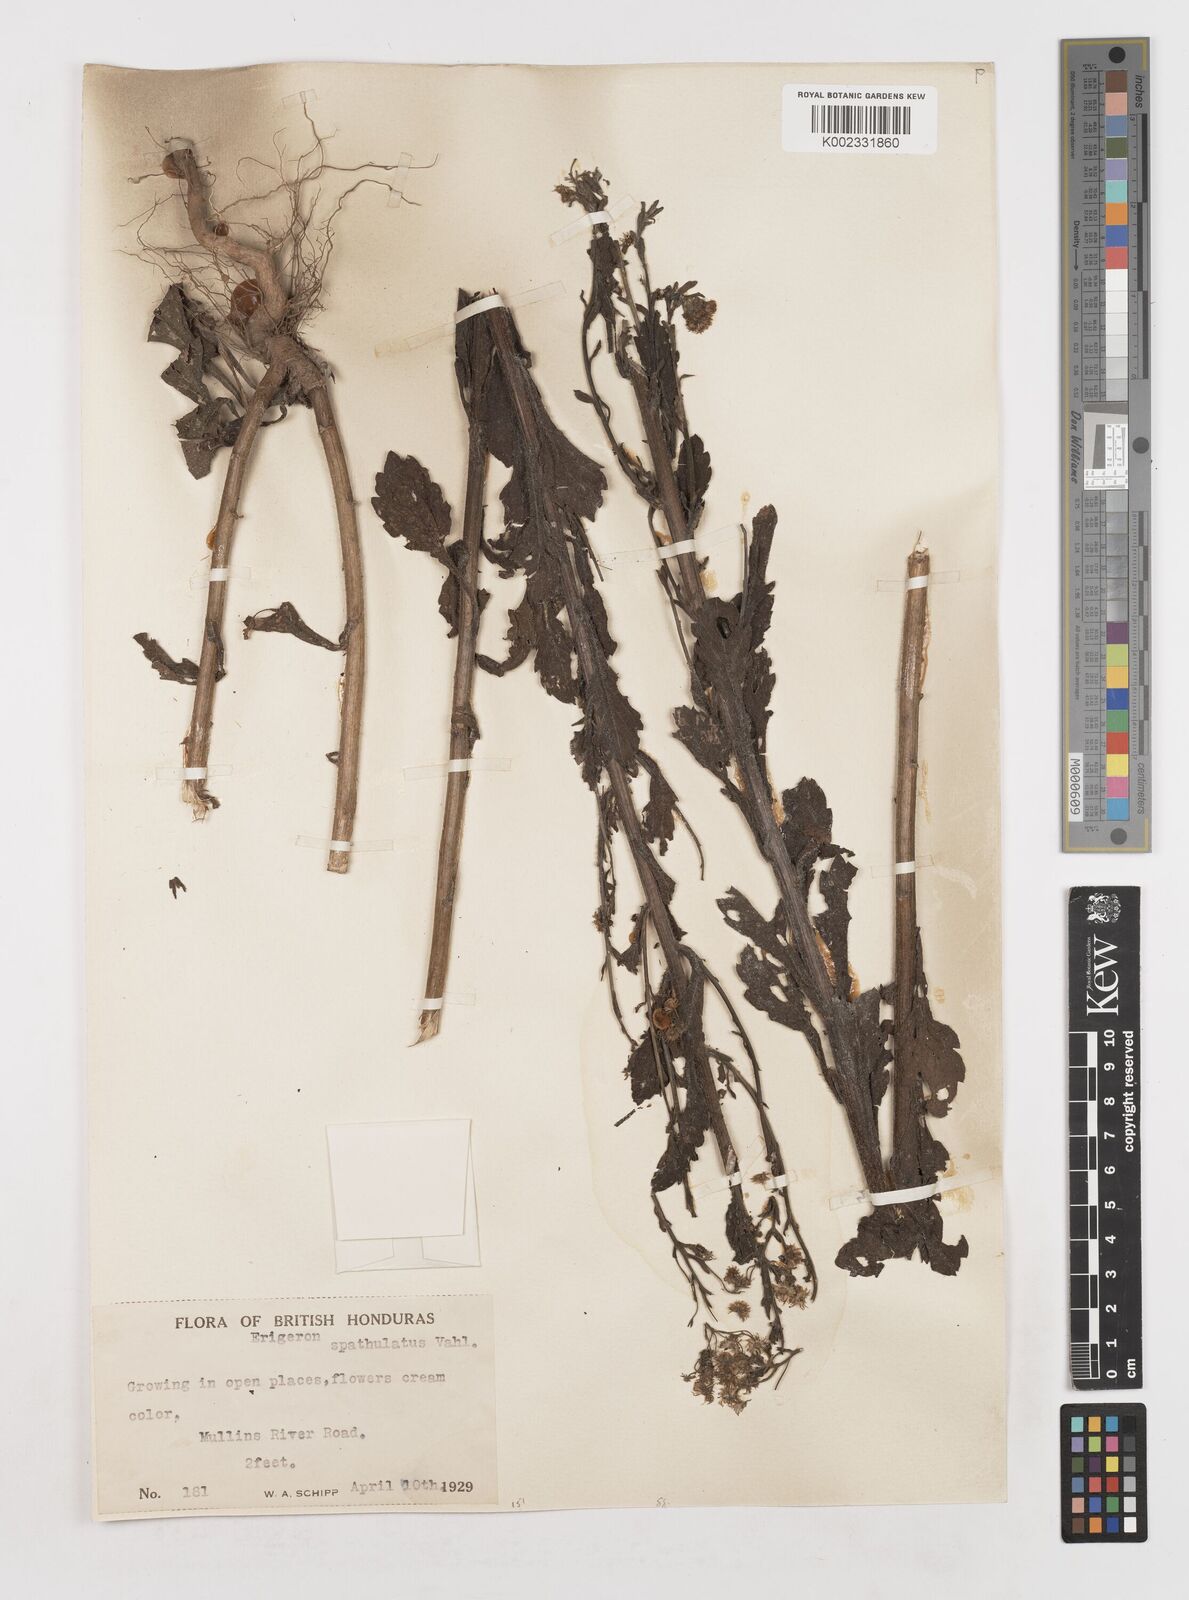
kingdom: Plantae
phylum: Tracheophyta
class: Magnoliopsida
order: Asterales
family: Asteraceae
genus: Erigeron
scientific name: Erigeron laevigatus
